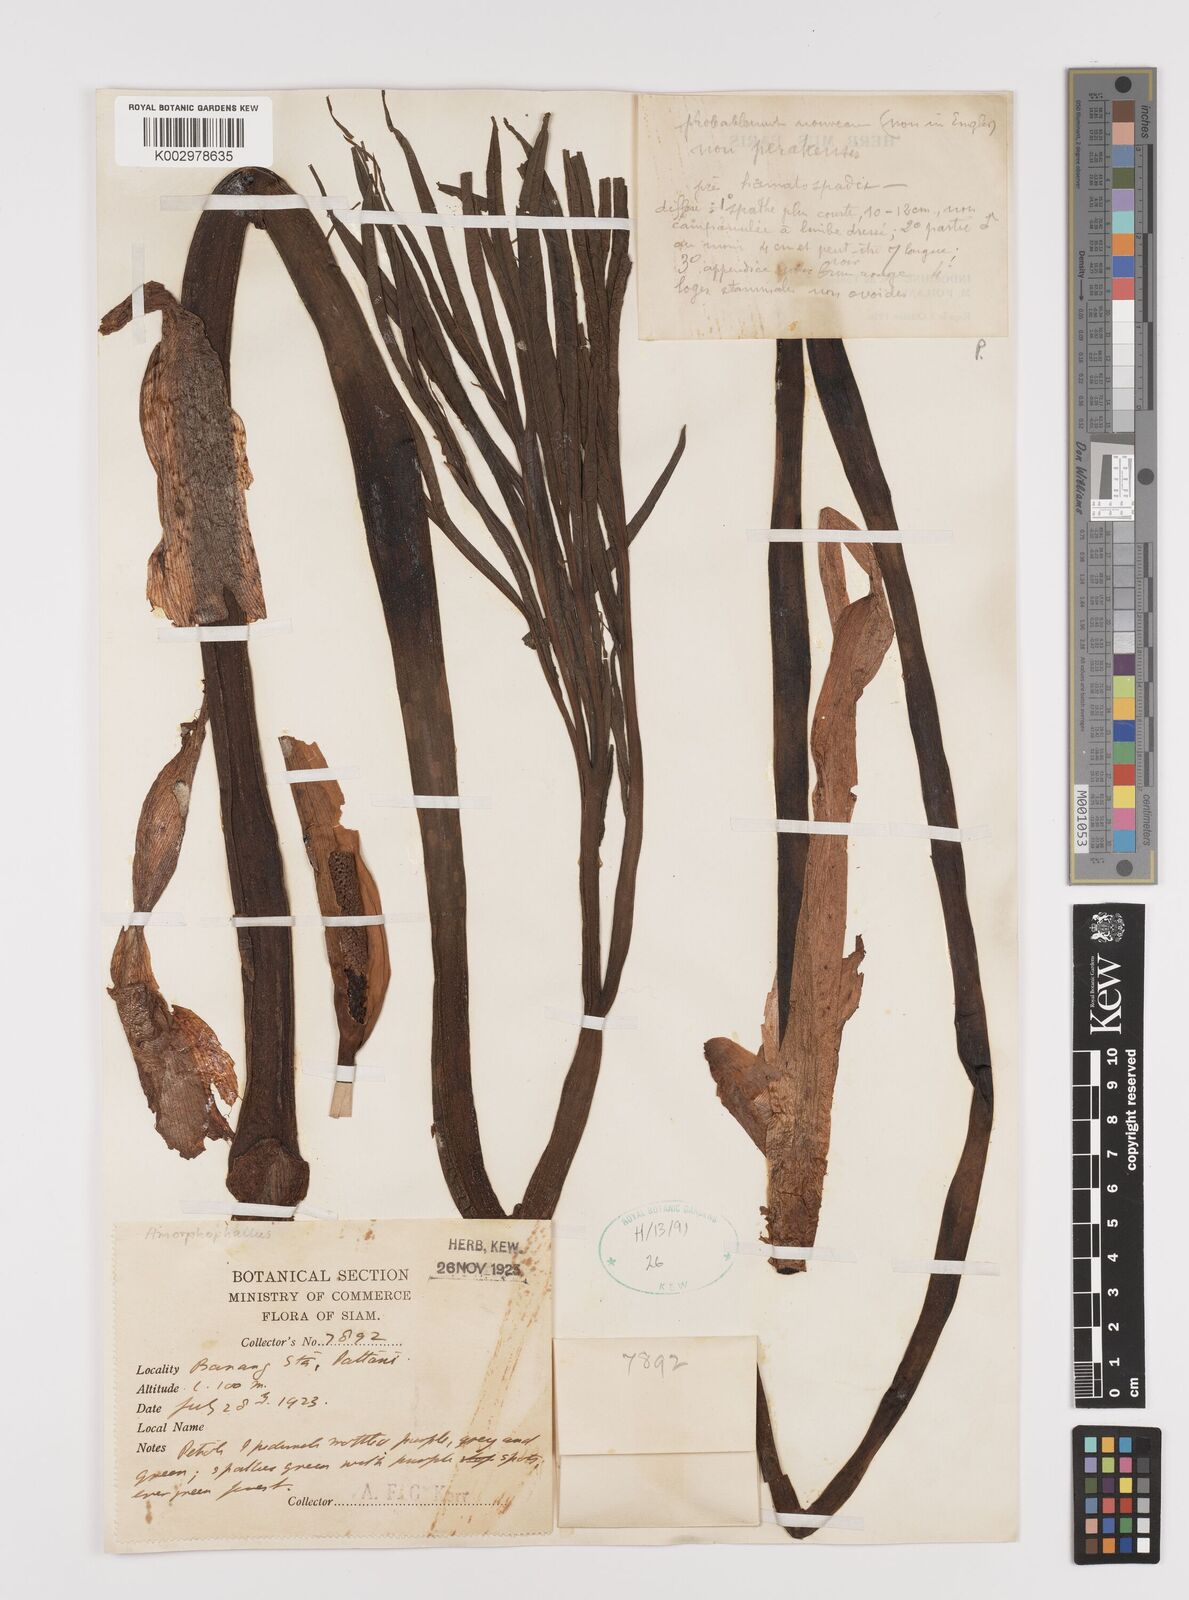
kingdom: Plantae
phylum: Tracheophyta
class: Liliopsida
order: Alismatales
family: Araceae
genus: Amorphophallus
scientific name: Amorphophallus excentricus
